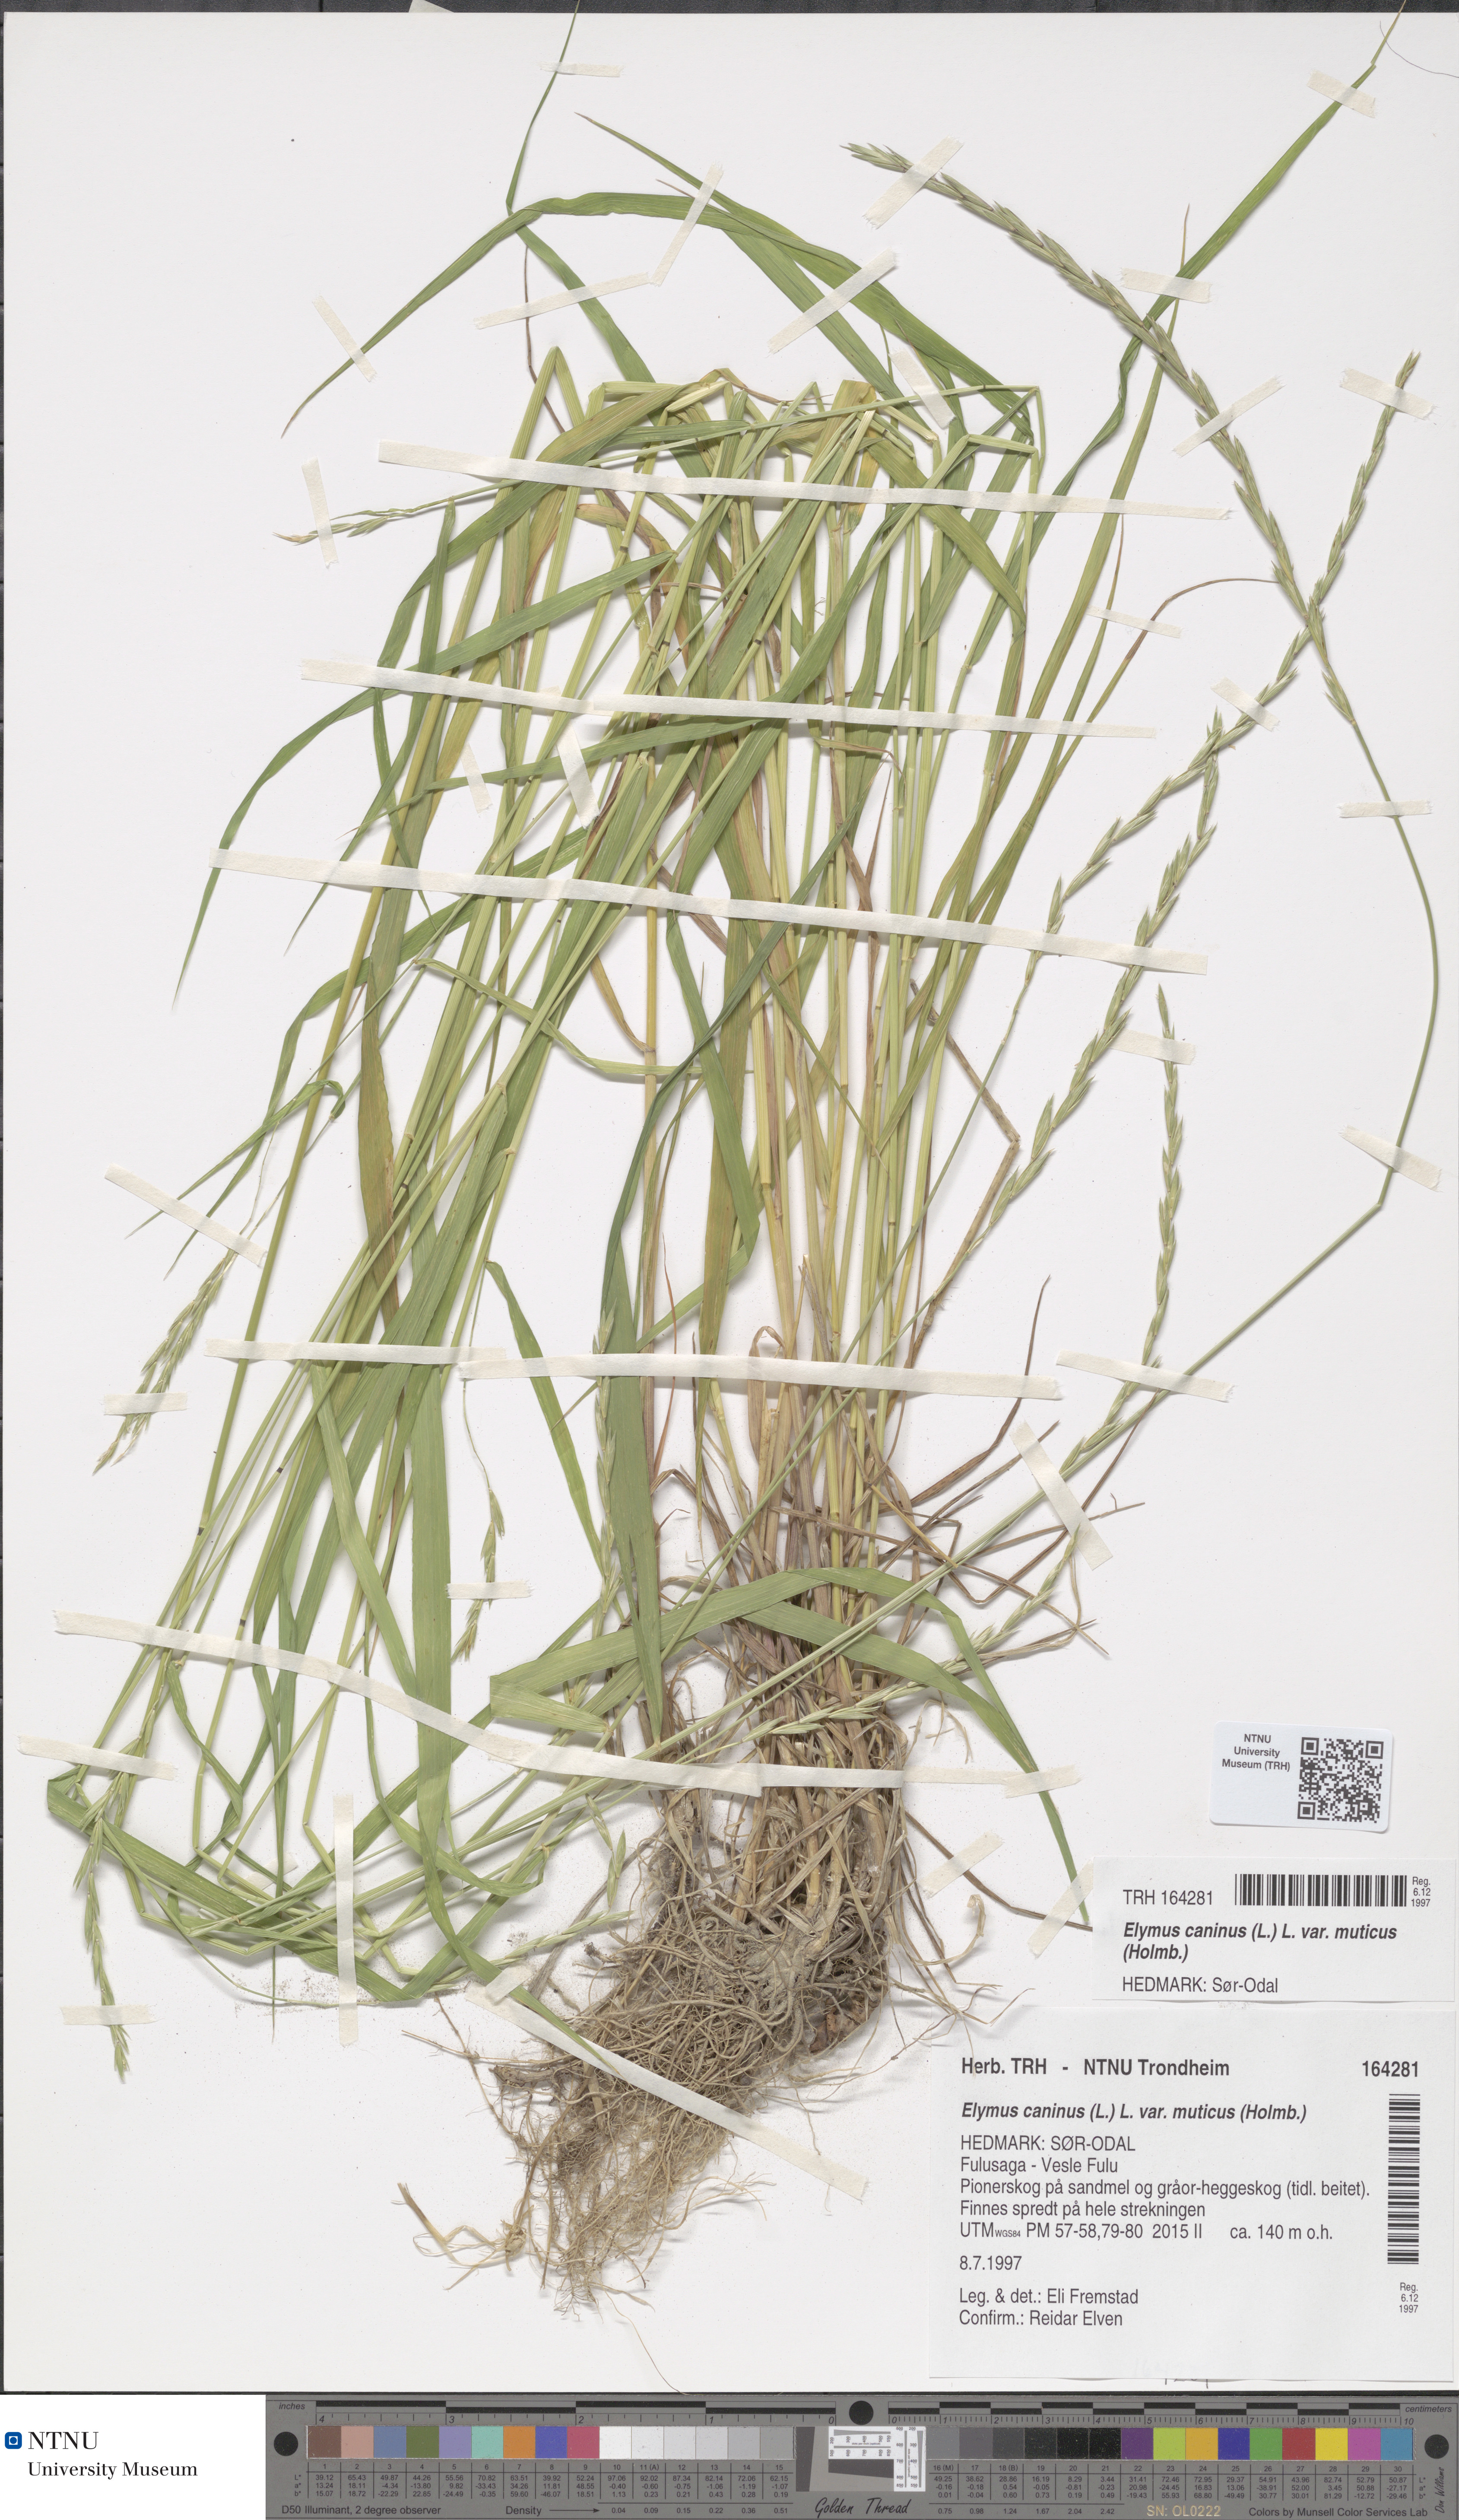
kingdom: Plantae
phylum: Tracheophyta
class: Liliopsida
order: Poales
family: Poaceae
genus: Elymus
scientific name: Elymus caninus
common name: Bearded couch
